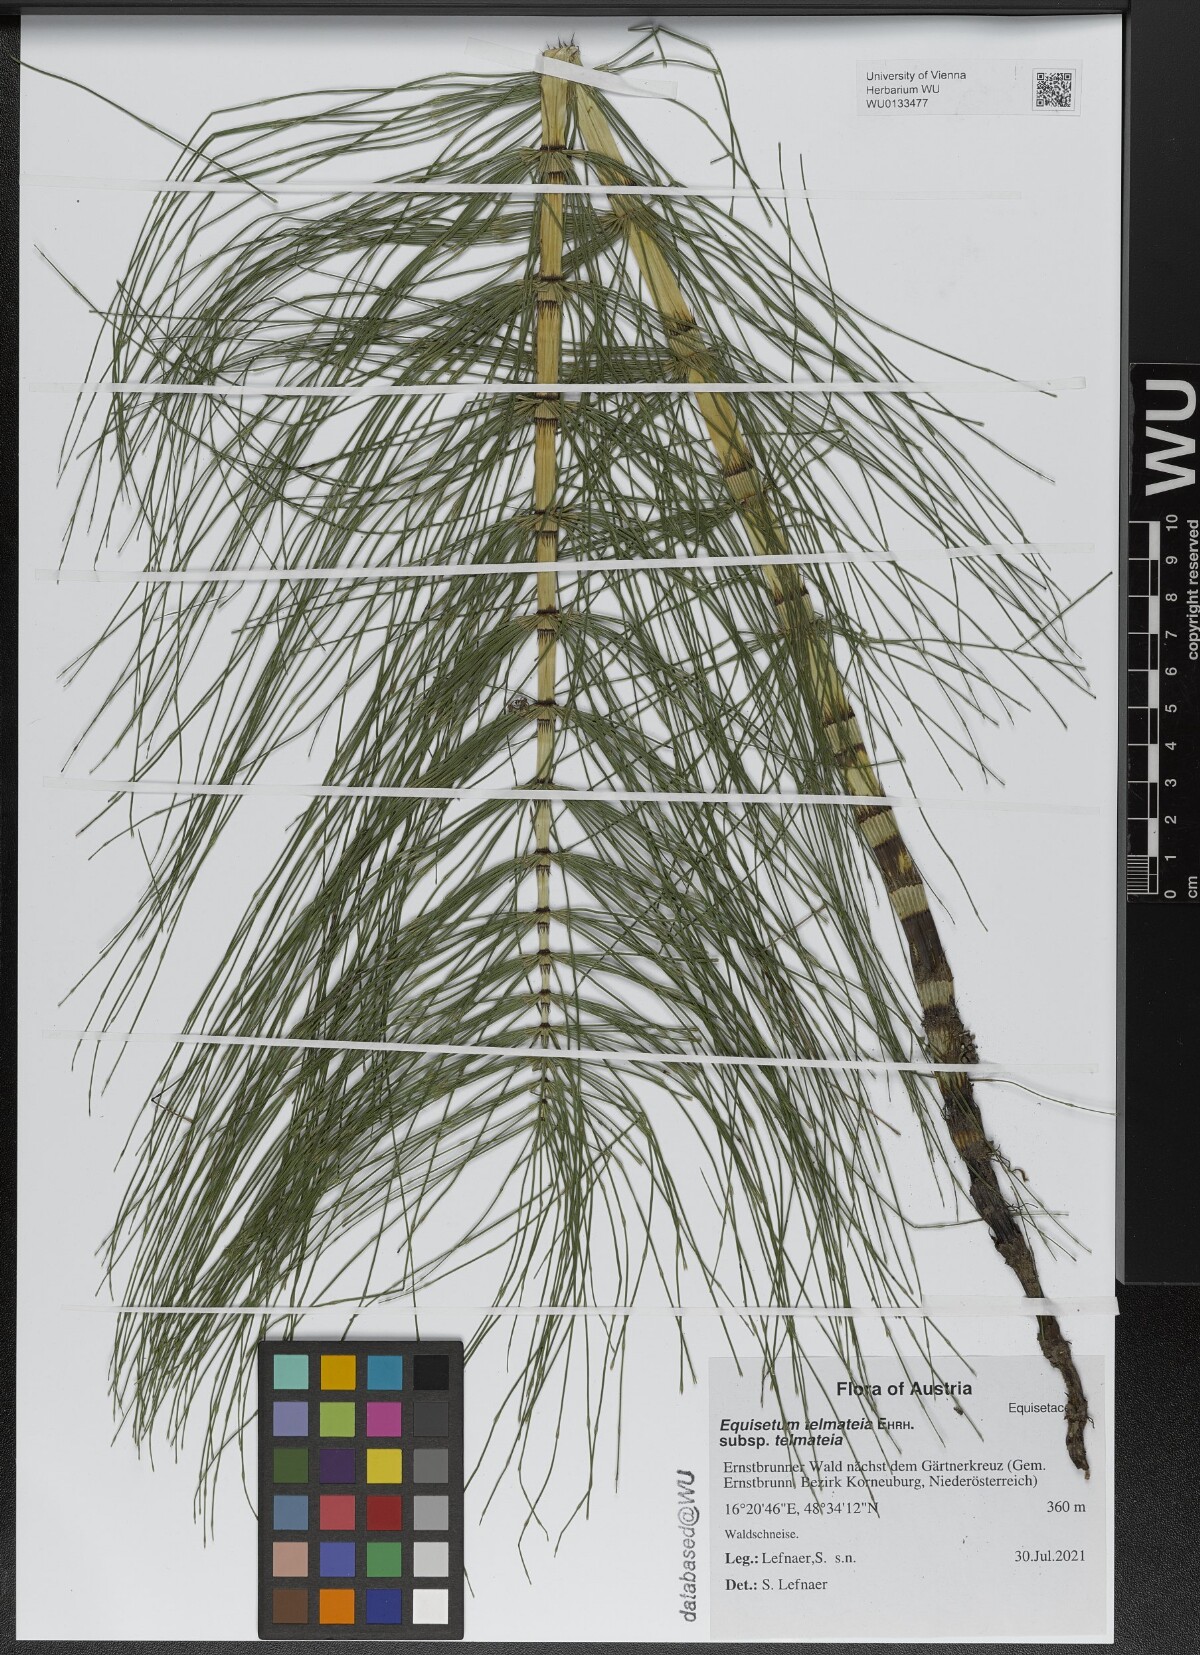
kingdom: Plantae
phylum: Tracheophyta
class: Polypodiopsida
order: Equisetales
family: Equisetaceae
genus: Equisetum
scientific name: Equisetum telmateia
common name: Great horsetail
